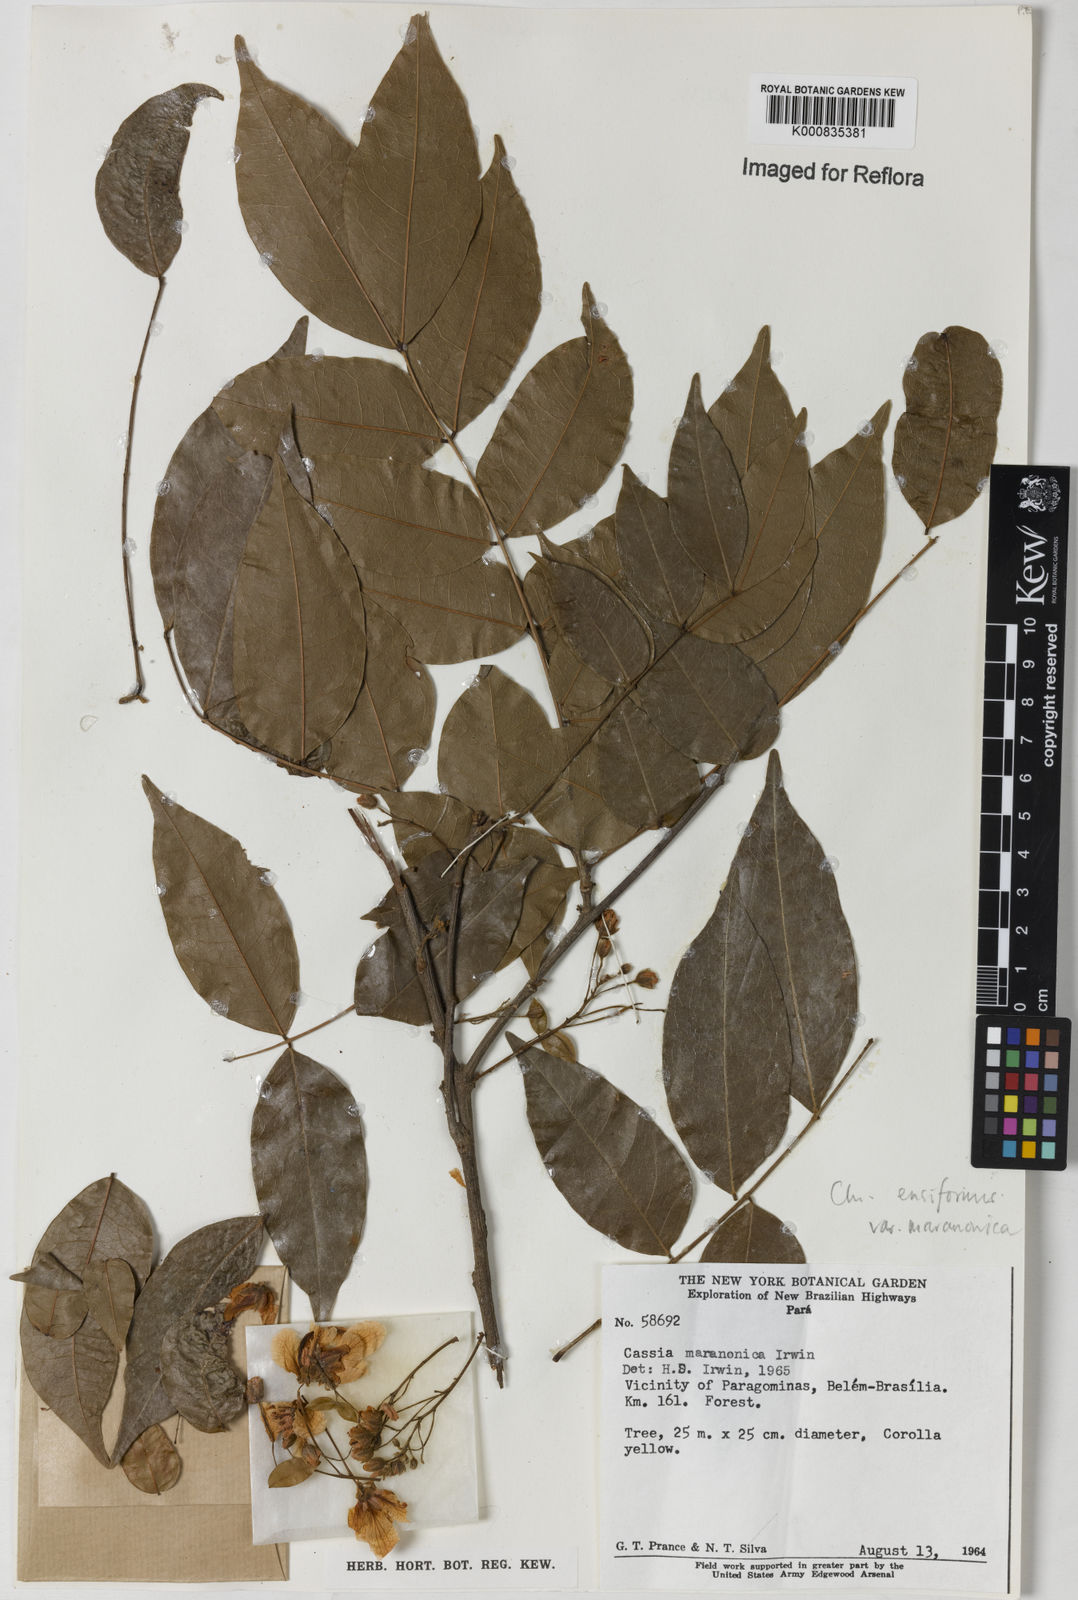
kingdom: Plantae
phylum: Tracheophyta
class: Magnoliopsida
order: Fabales
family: Fabaceae
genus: Chamaecrista
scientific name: Chamaecrista ensiformis
